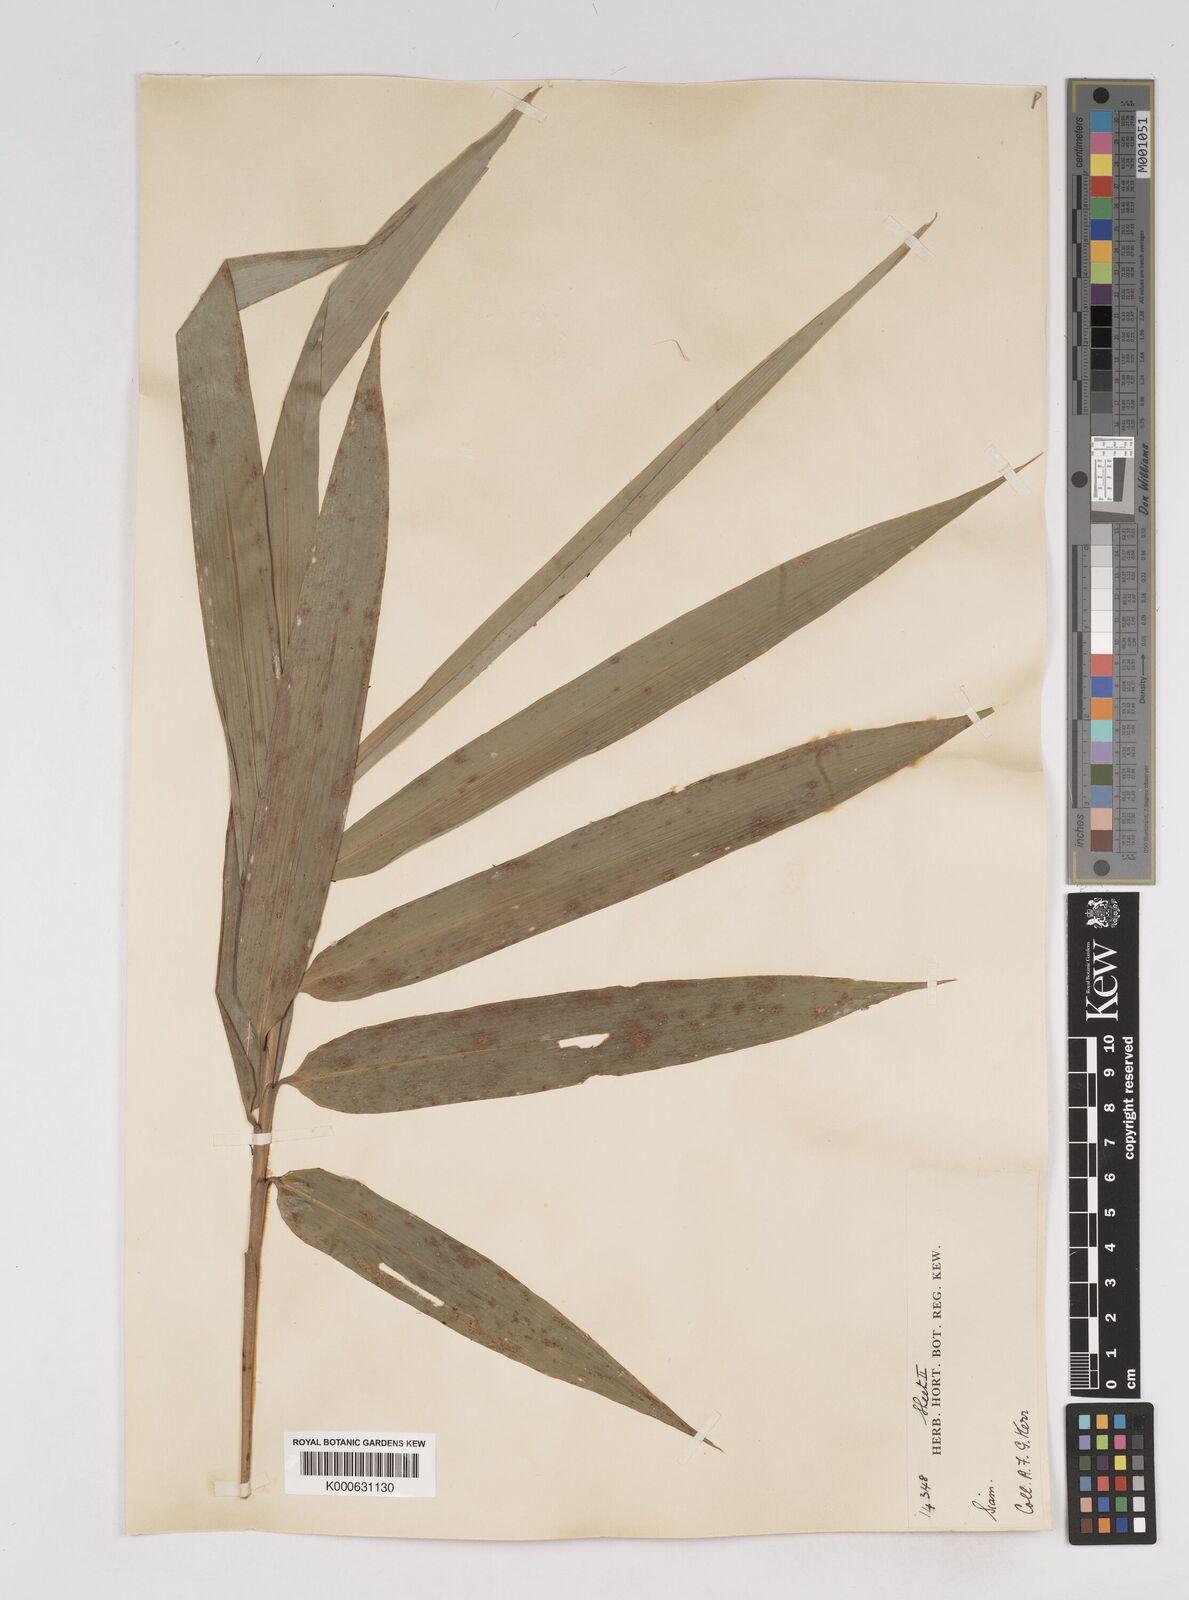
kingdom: Plantae
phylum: Tracheophyta
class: Liliopsida
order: Poales
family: Poaceae
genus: Gigantochloa
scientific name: Gigantochloa
